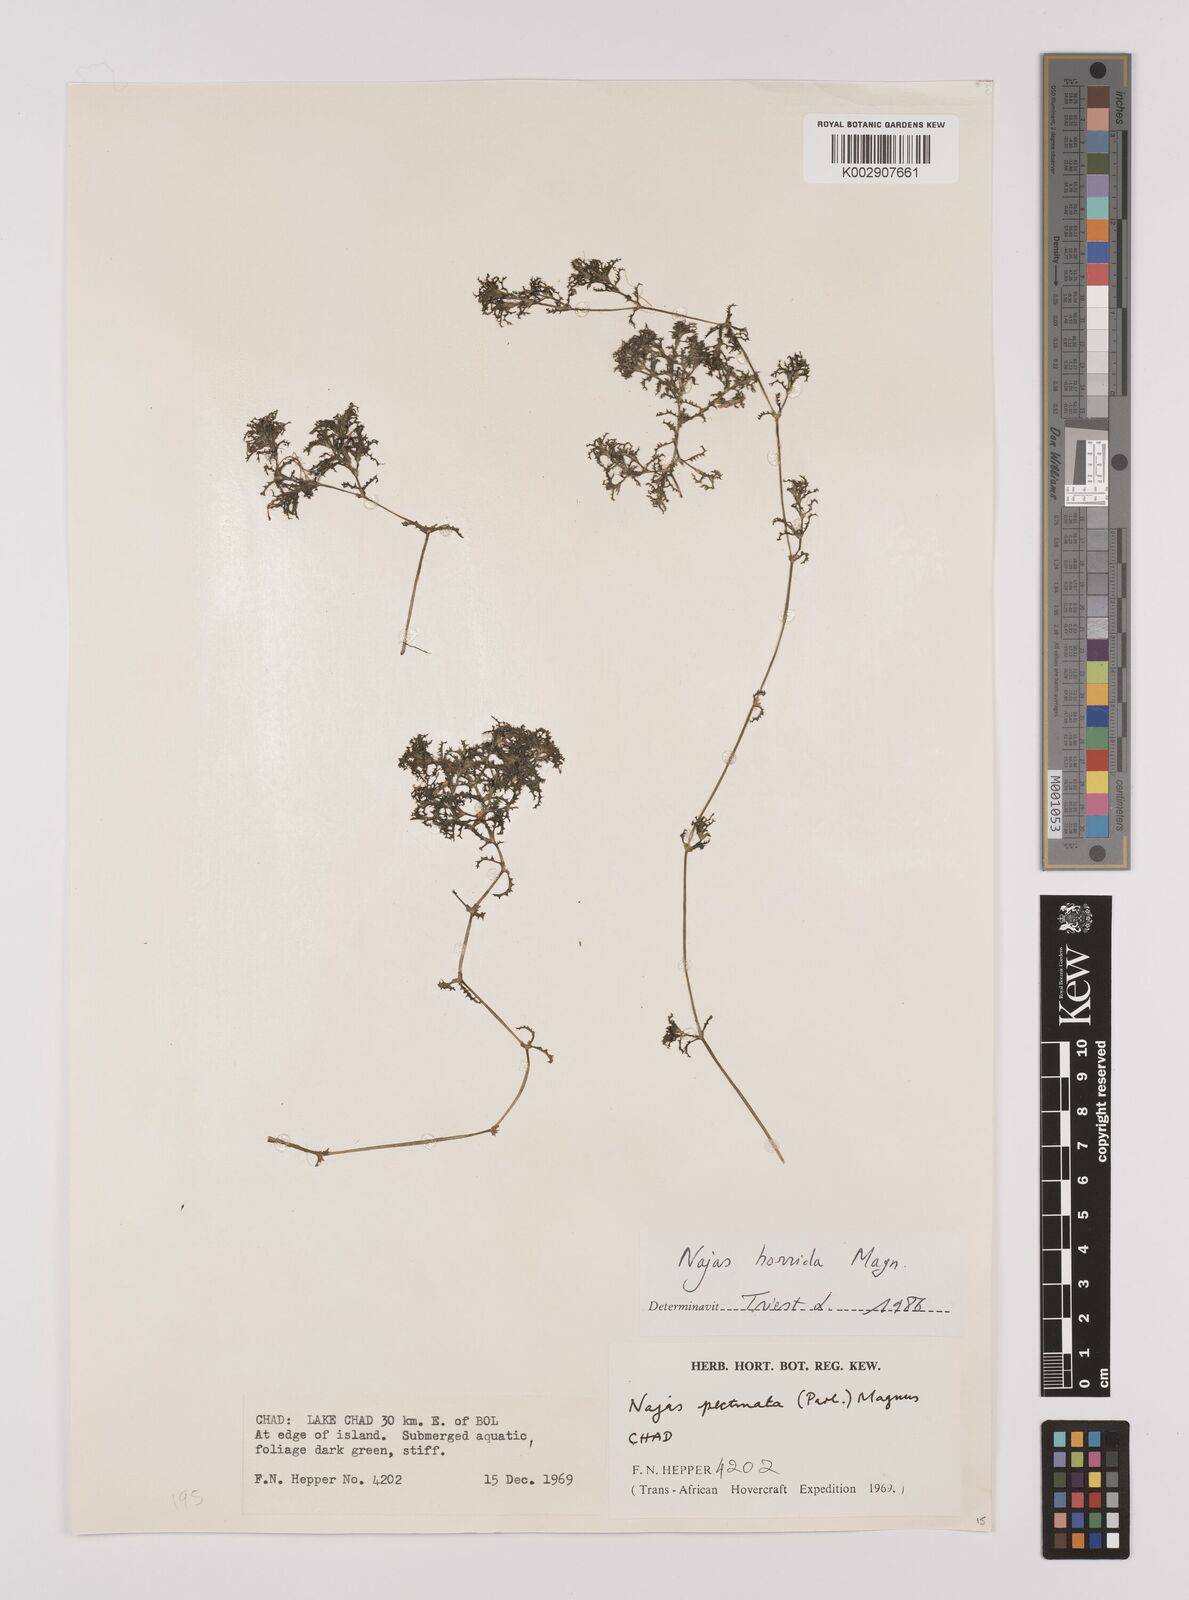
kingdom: Plantae
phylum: Tracheophyta
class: Liliopsida
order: Alismatales
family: Hydrocharitaceae
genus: Najas
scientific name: Najas pectinata
